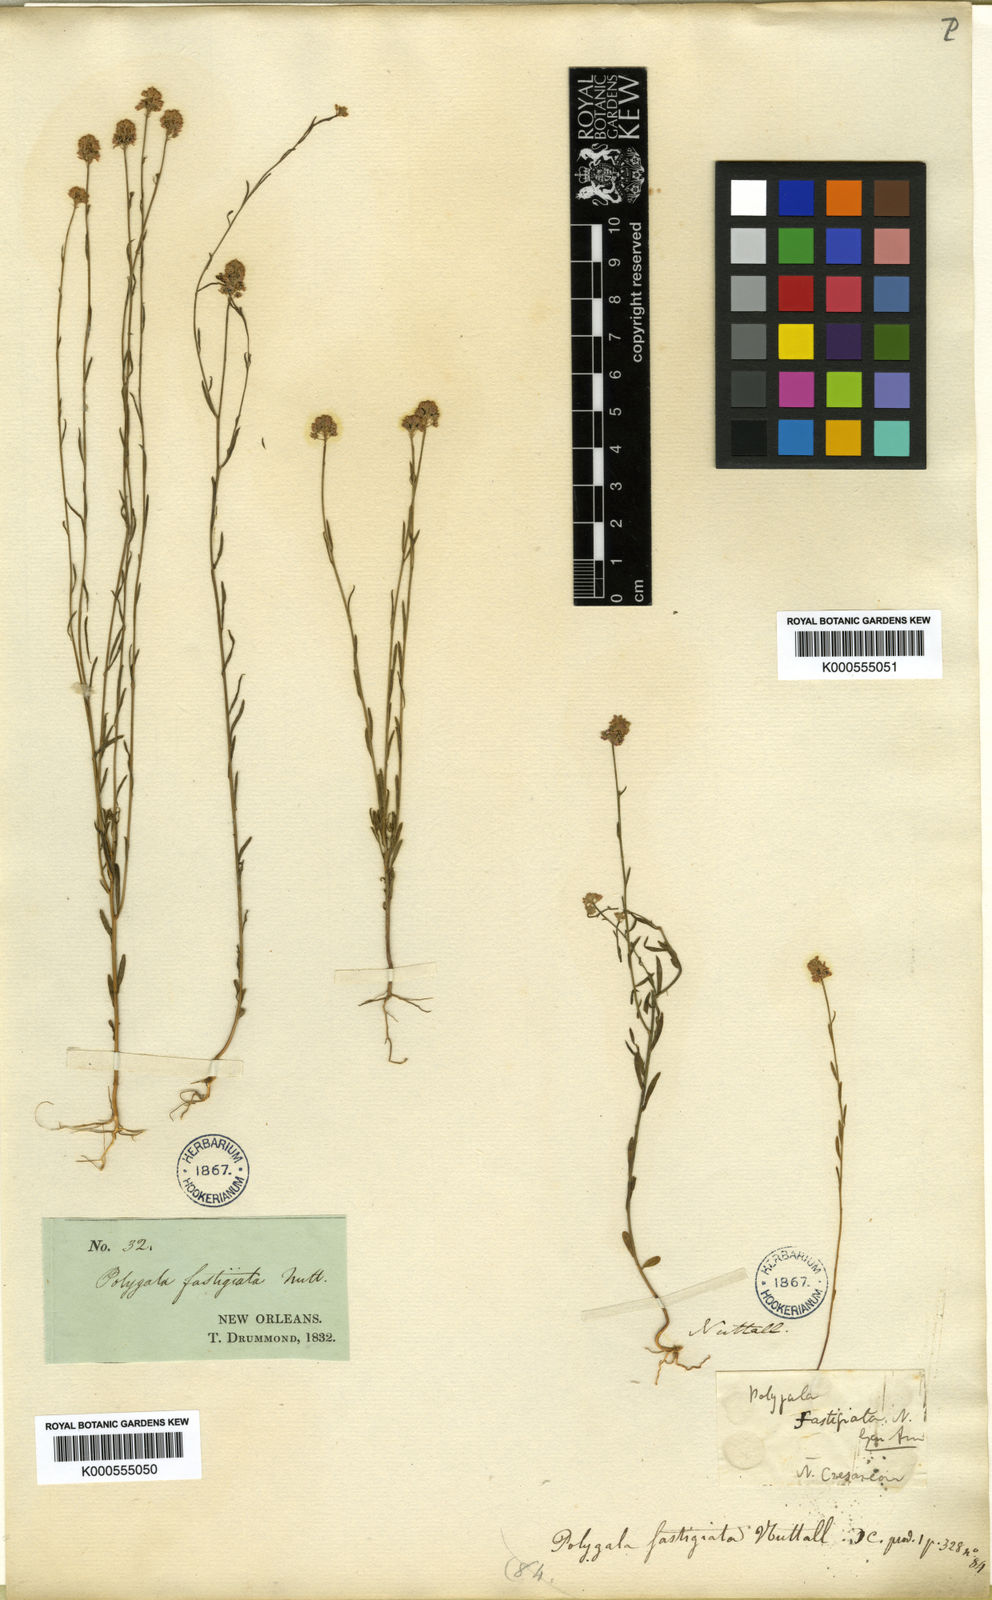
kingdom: Plantae
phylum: Tracheophyta
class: Magnoliopsida
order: Fabales
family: Polygalaceae
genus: Polygala
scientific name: Polygala
